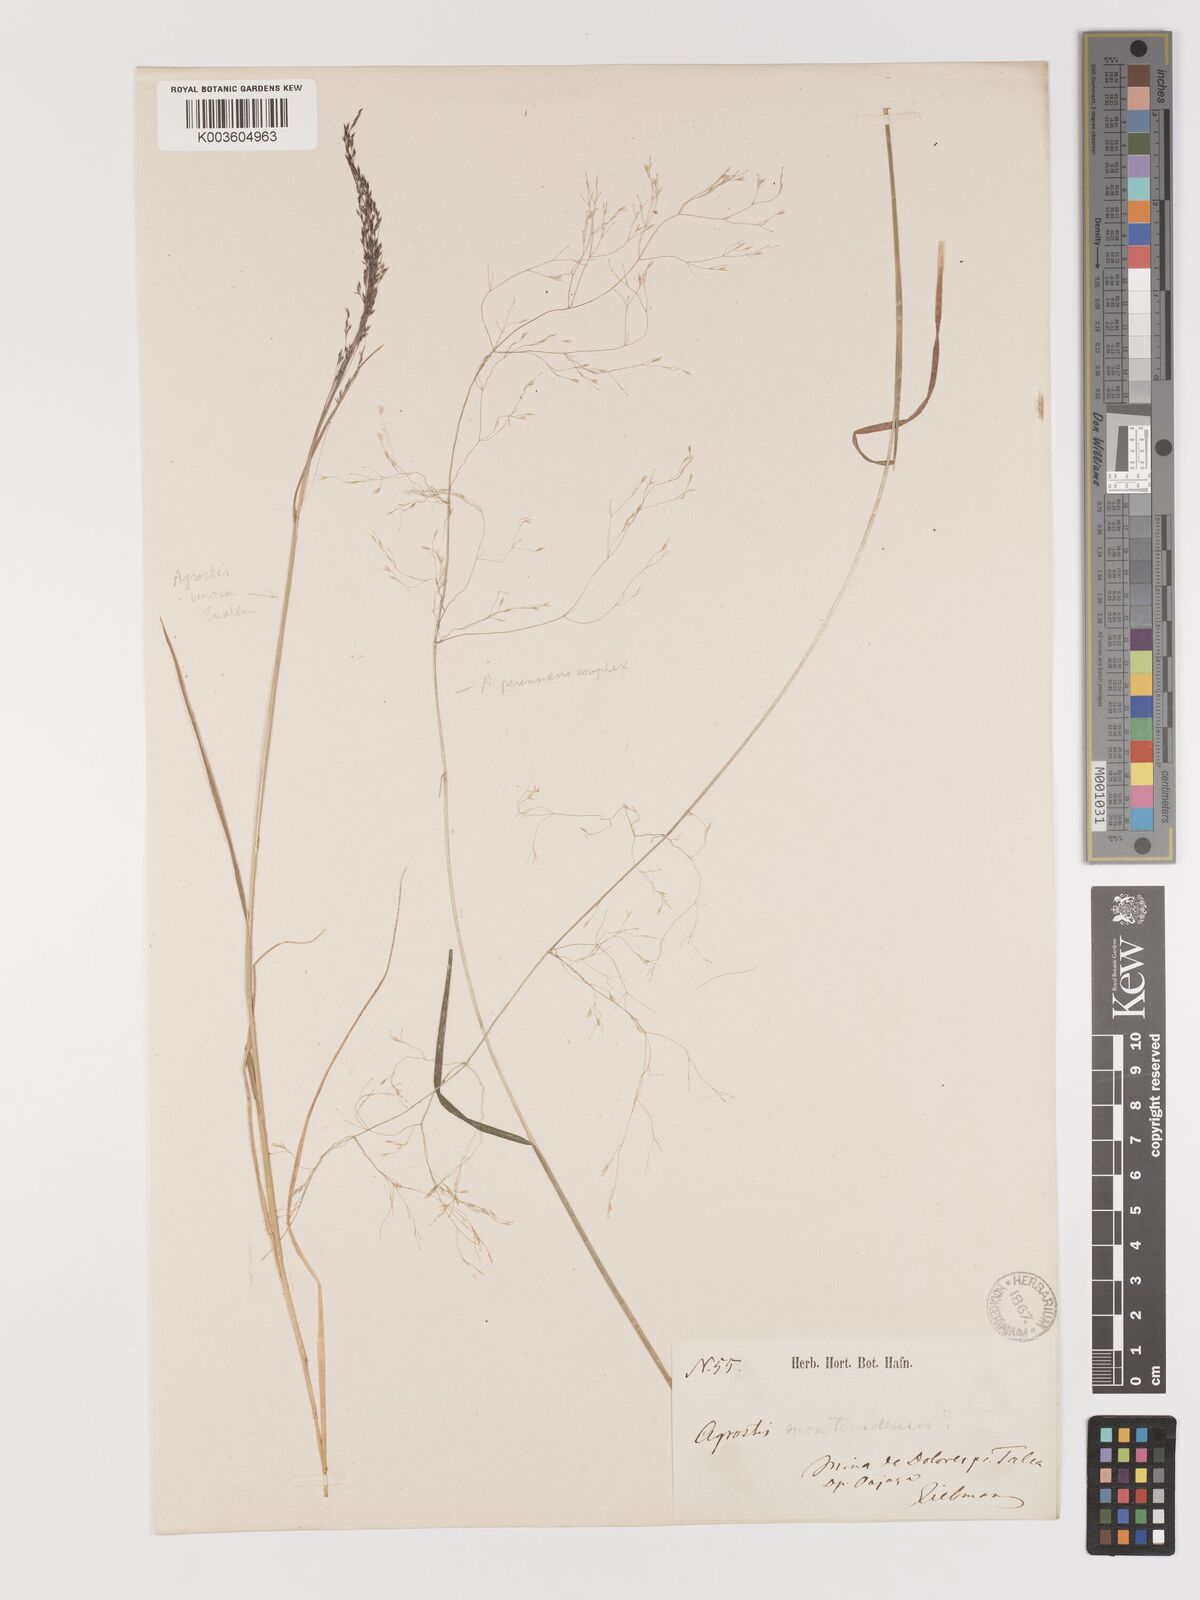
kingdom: Plantae
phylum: Tracheophyta
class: Liliopsida
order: Poales
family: Poaceae
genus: Agrostis
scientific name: Agrostis subpatens
